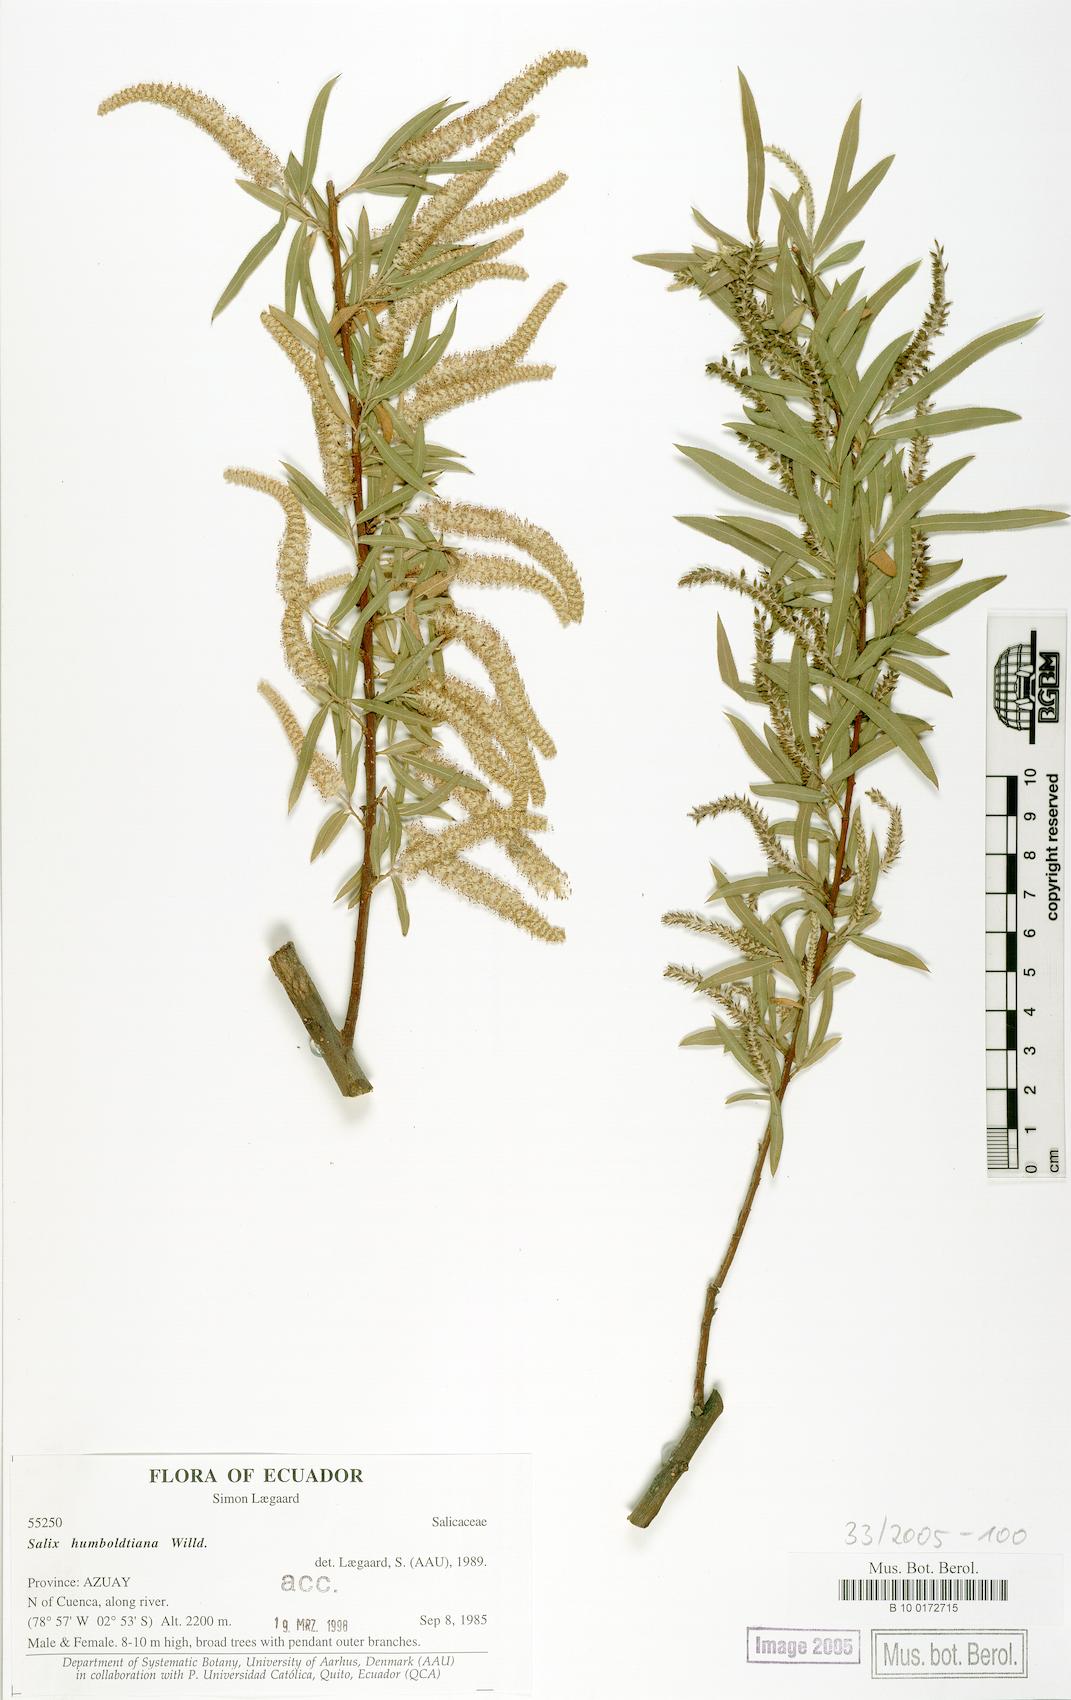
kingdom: Plantae
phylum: Tracheophyta
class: Magnoliopsida
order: Malpighiales
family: Salicaceae
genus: Salix
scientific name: Salix humboldtiana
